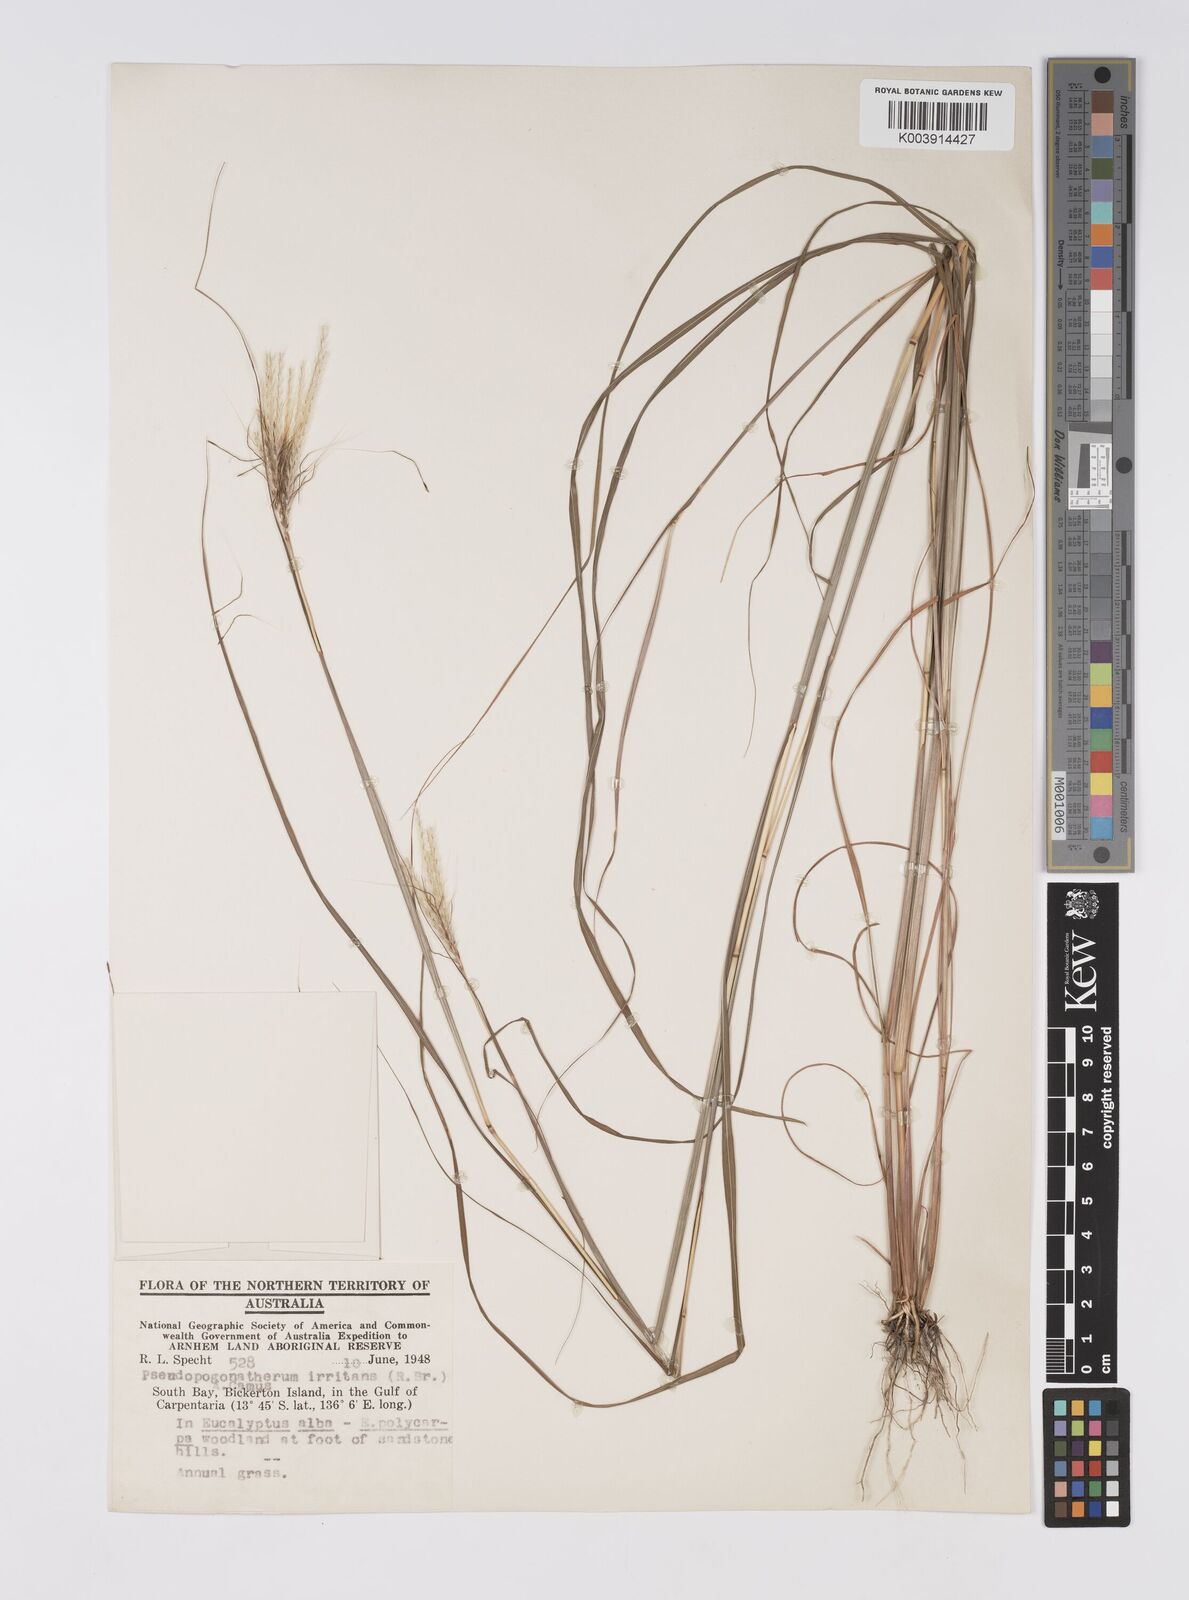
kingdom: Plantae
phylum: Tracheophyta
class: Liliopsida
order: Poales
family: Poaceae
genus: Pseudopogonatherum
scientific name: Pseudopogonatherum irritans
